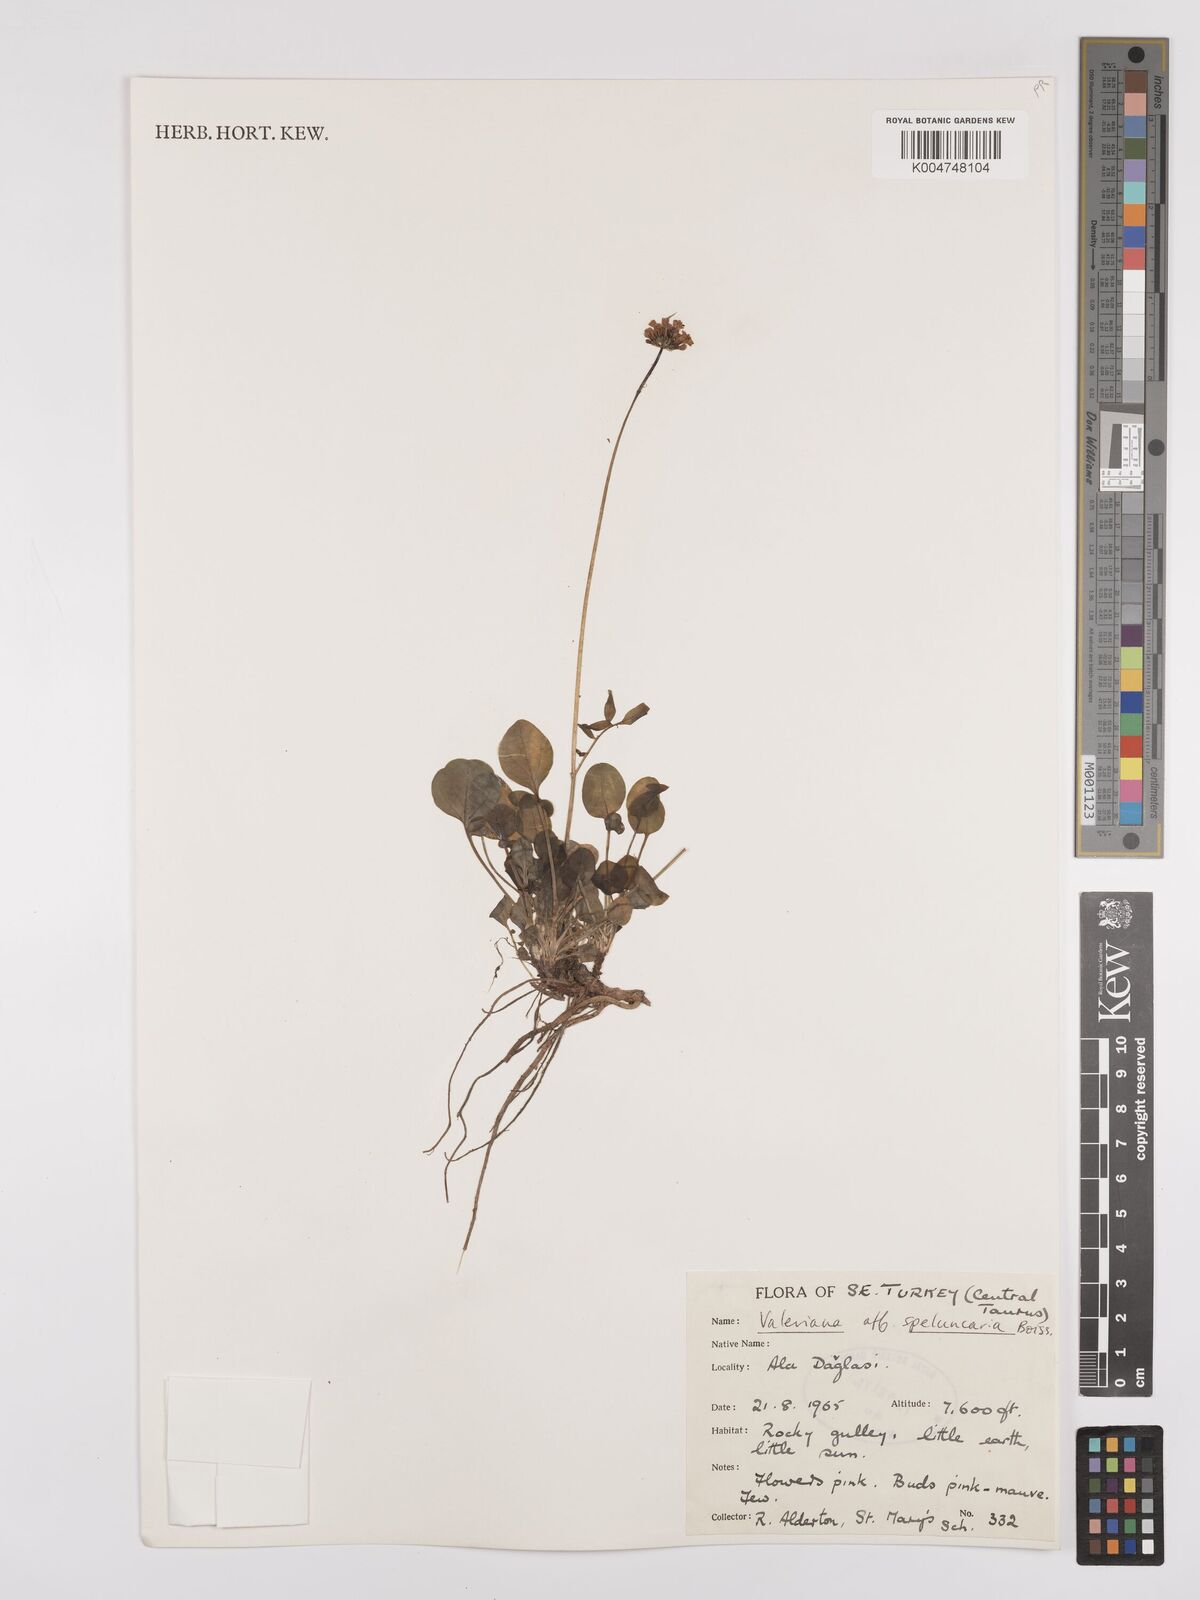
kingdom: Plantae
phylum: Tracheophyta
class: Magnoliopsida
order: Dipsacales
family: Caprifoliaceae
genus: Valeriana
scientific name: Valeriana petrophila
